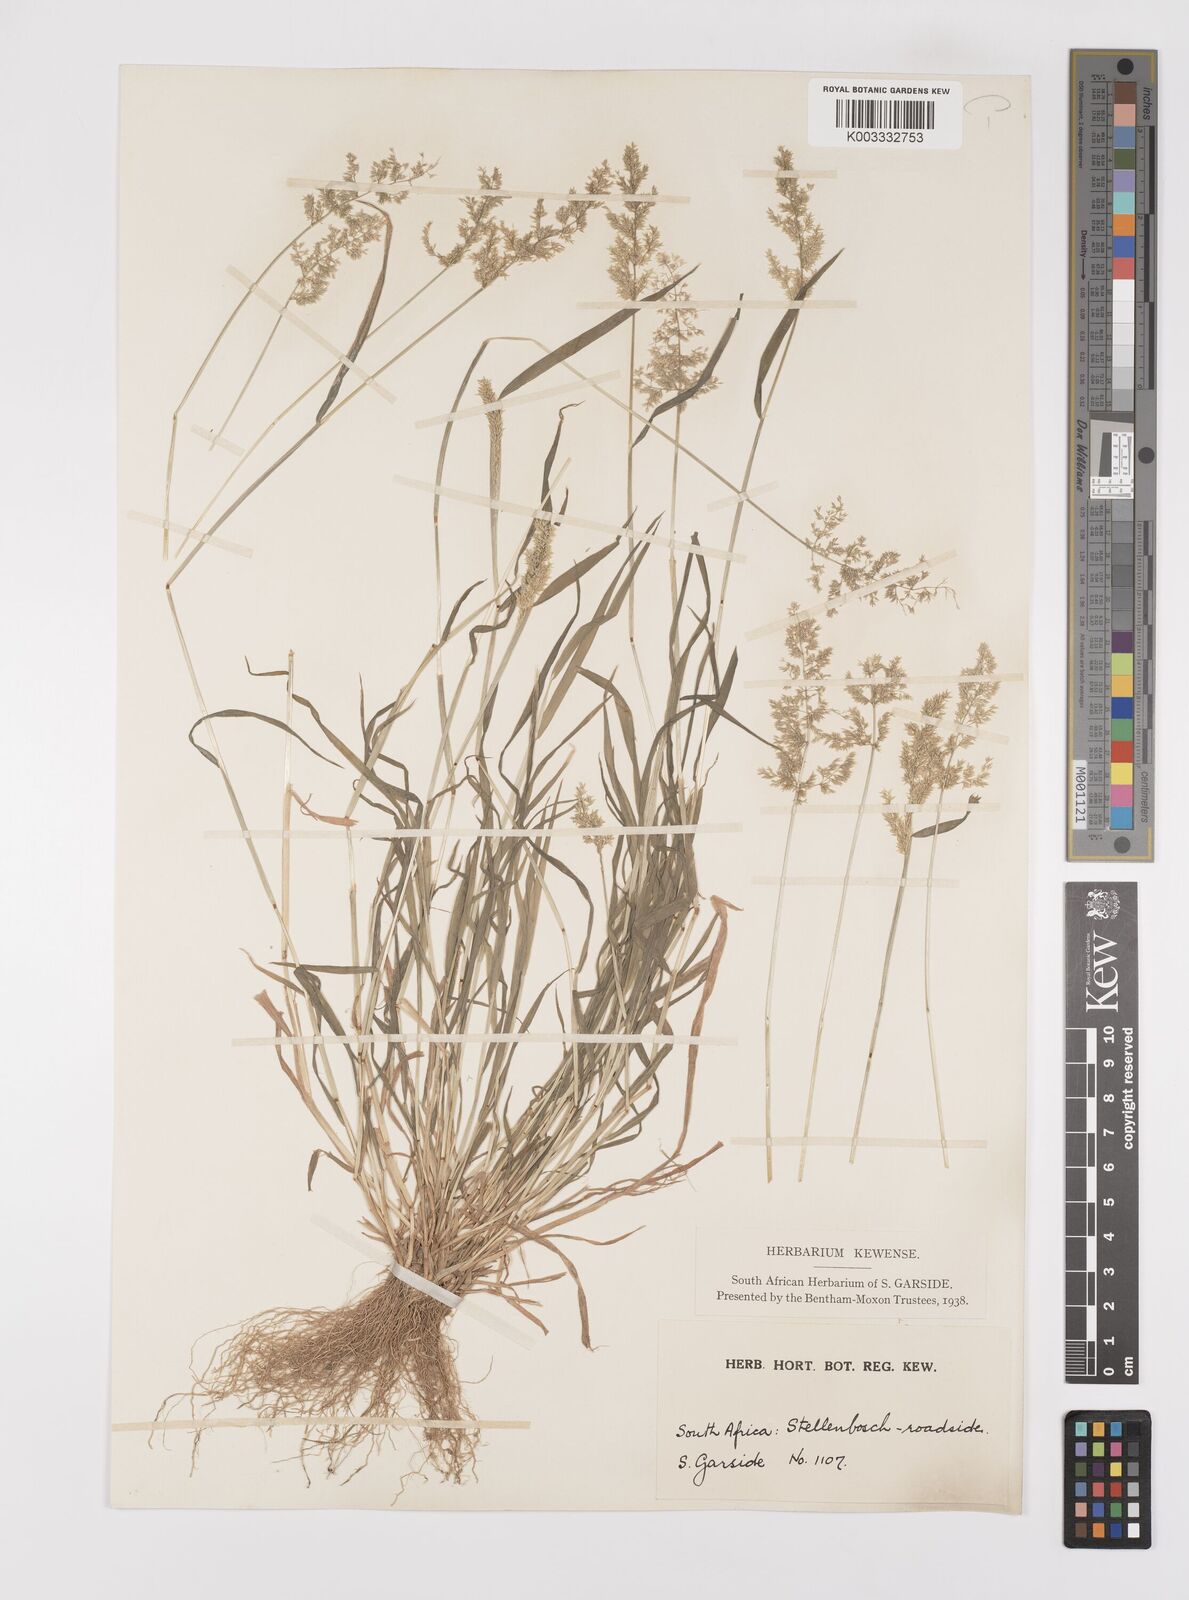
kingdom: Plantae
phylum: Tracheophyta
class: Liliopsida
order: Poales
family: Poaceae
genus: Polypogon
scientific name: Polypogon viridis
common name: Water bent
